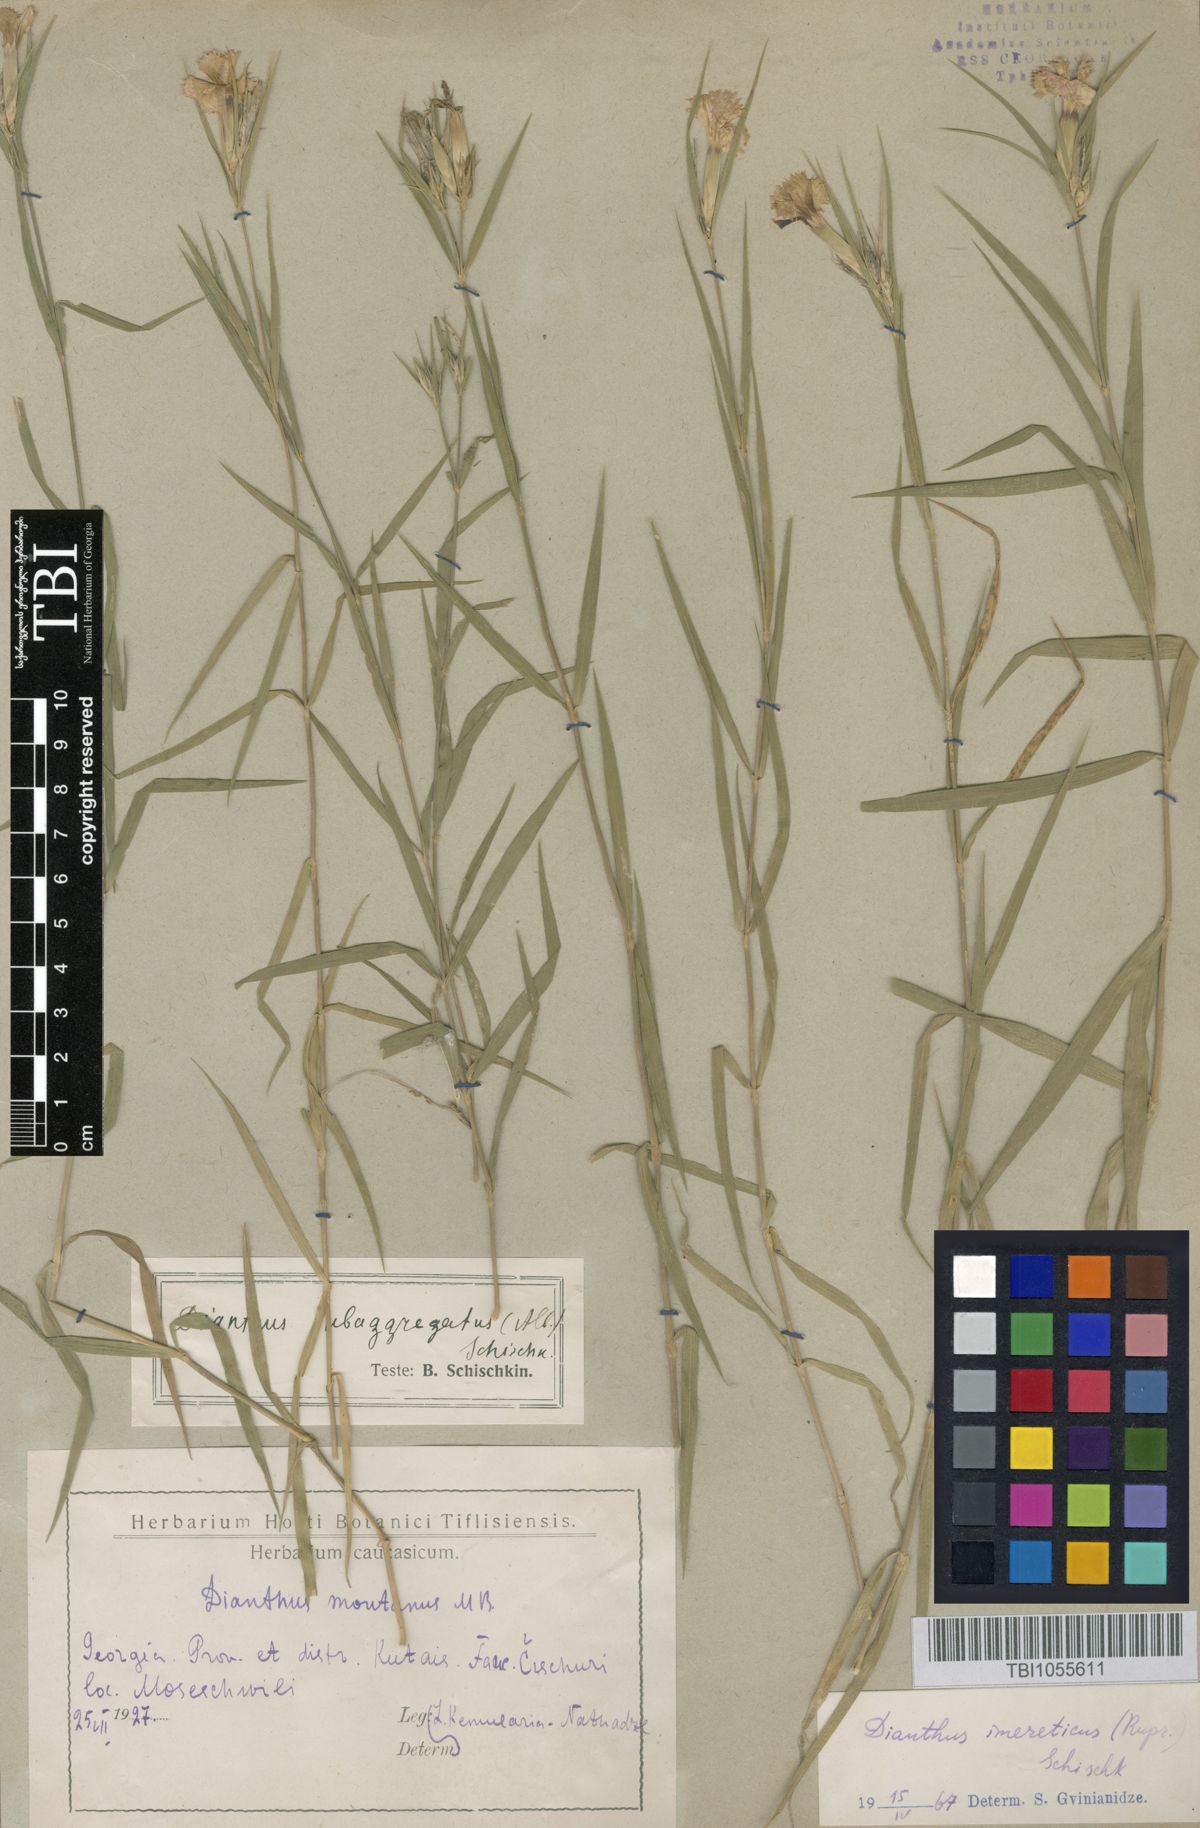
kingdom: Plantae
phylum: Tracheophyta
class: Magnoliopsida
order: Caryophyllales
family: Caryophyllaceae
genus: Dianthus
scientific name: Dianthus imereticus
